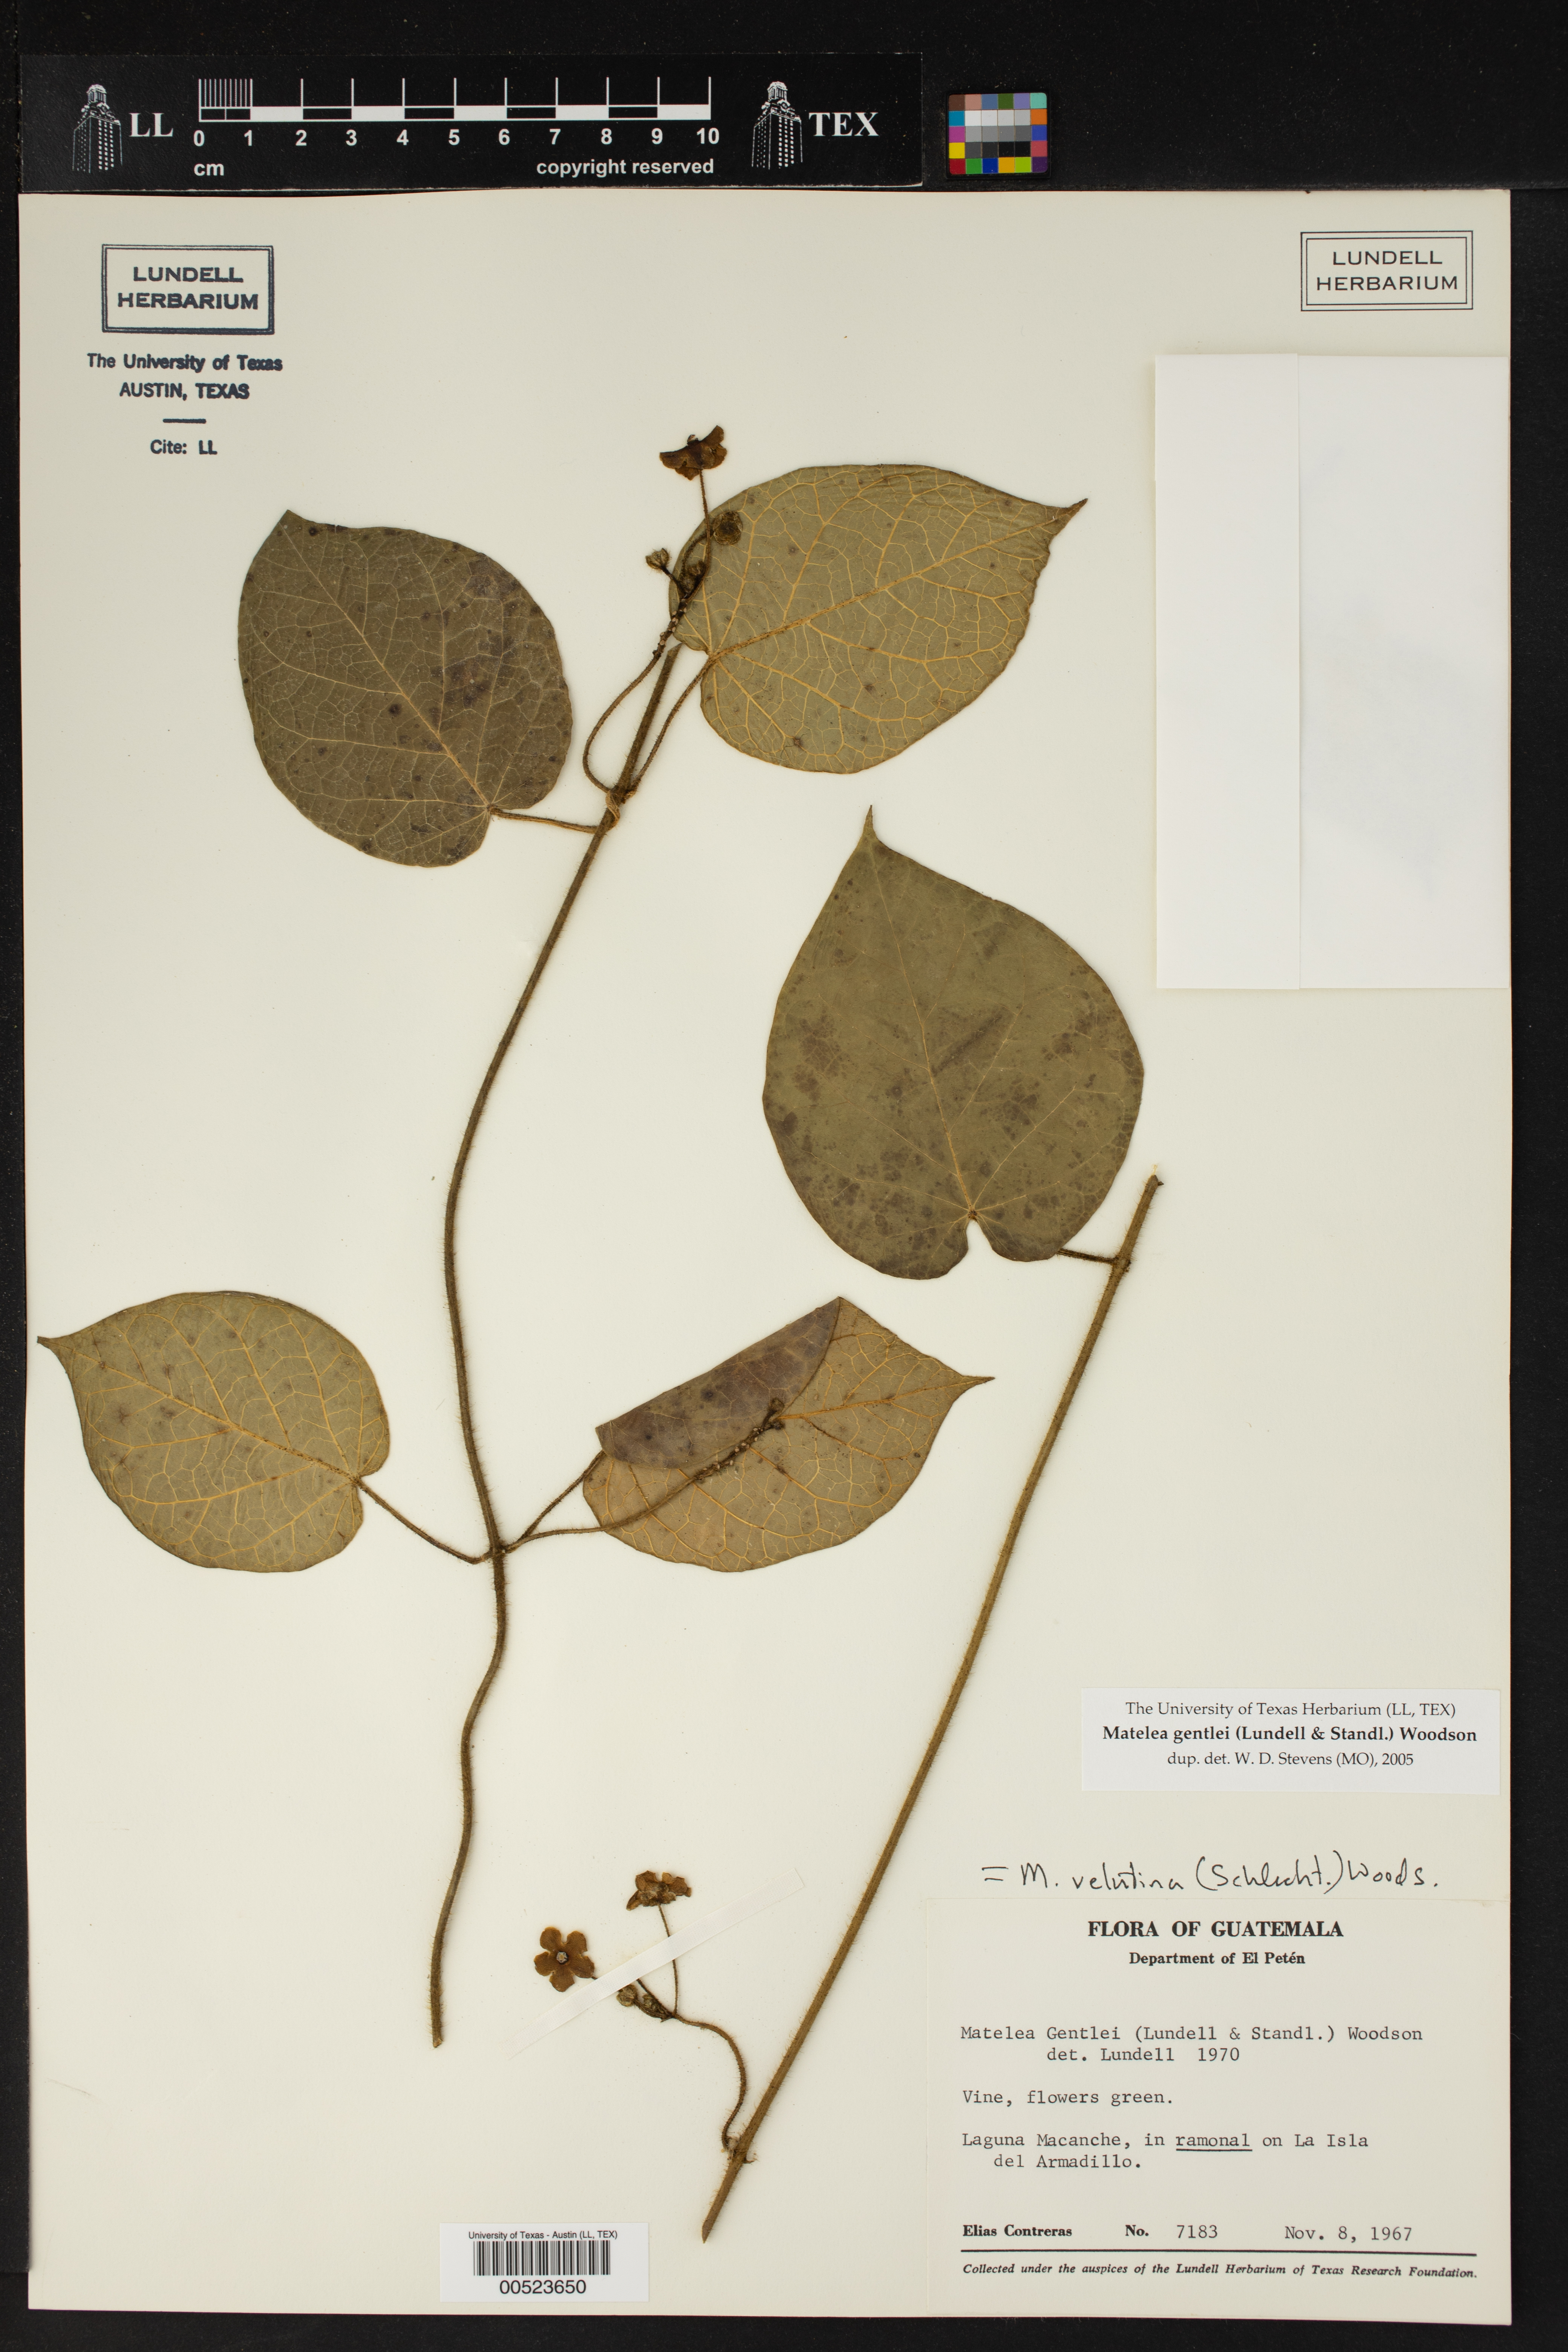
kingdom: Plantae
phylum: Tracheophyta
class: Magnoliopsida
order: Gentianales
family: Apocynaceae
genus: Matelea
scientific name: Matelea gentlei
